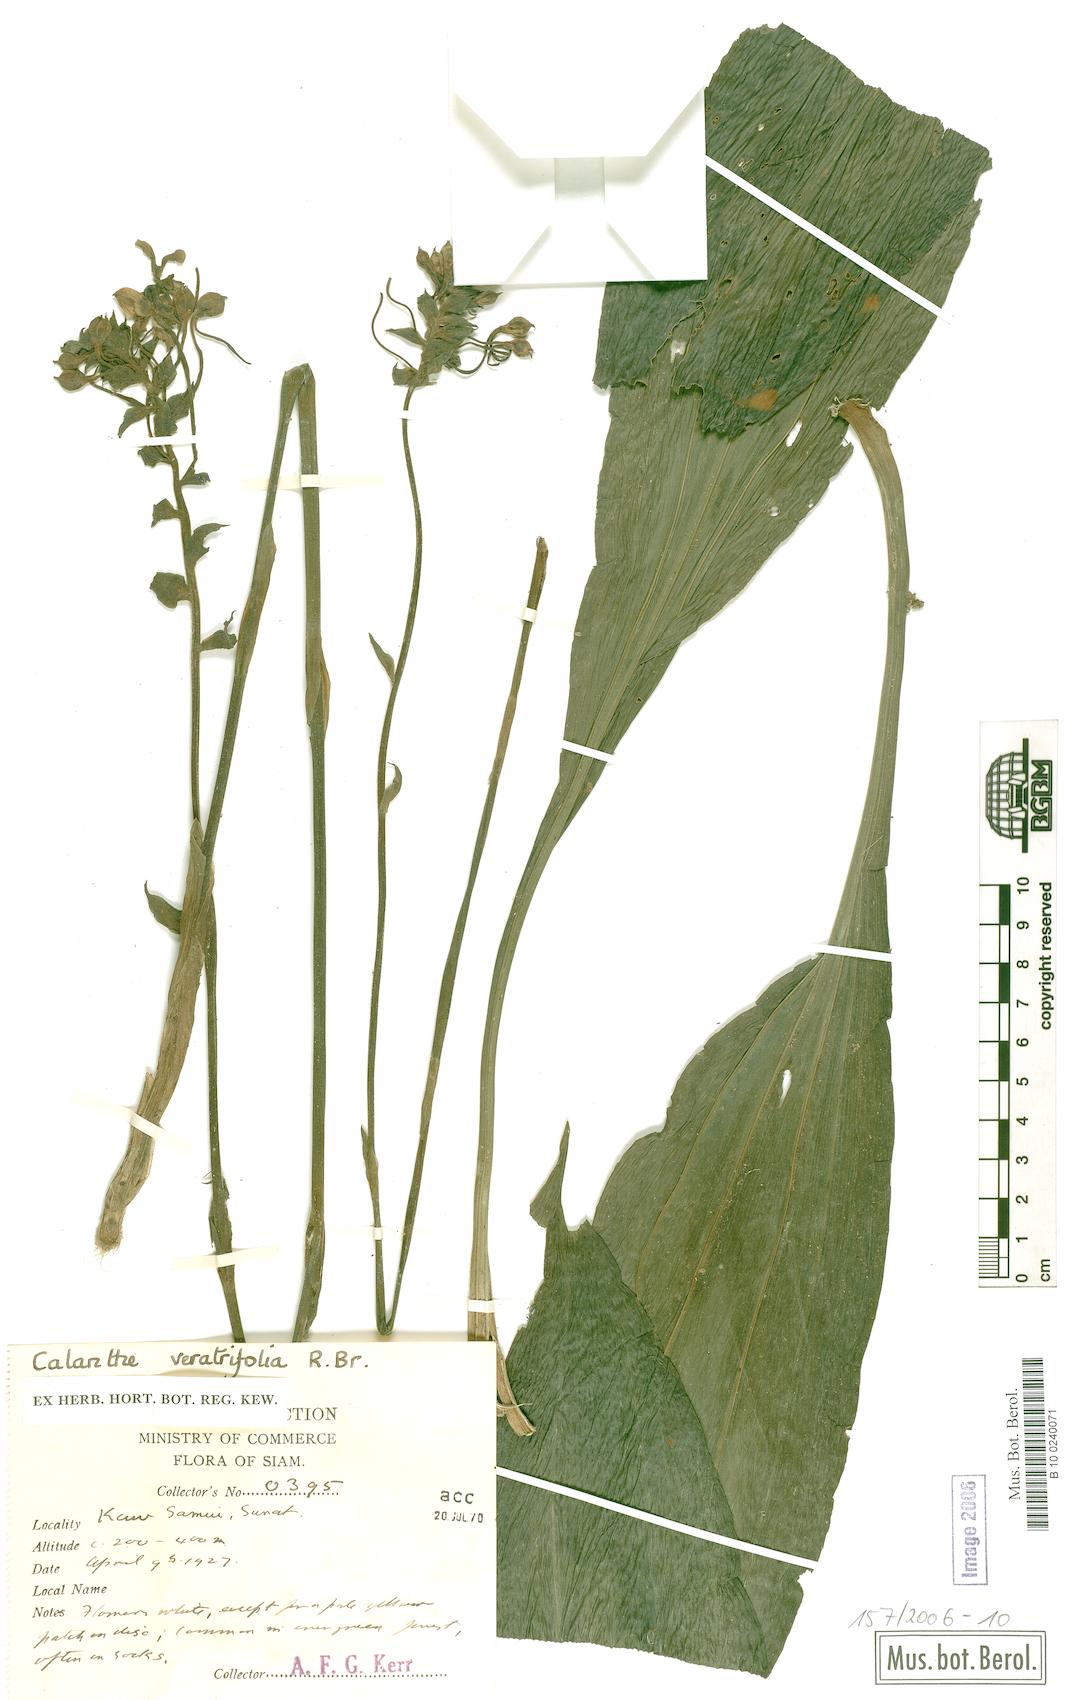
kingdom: Plantae
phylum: Tracheophyta
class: Liliopsida
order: Asparagales
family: Orchidaceae
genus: Calanthe
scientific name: Calanthe veratrifolia
